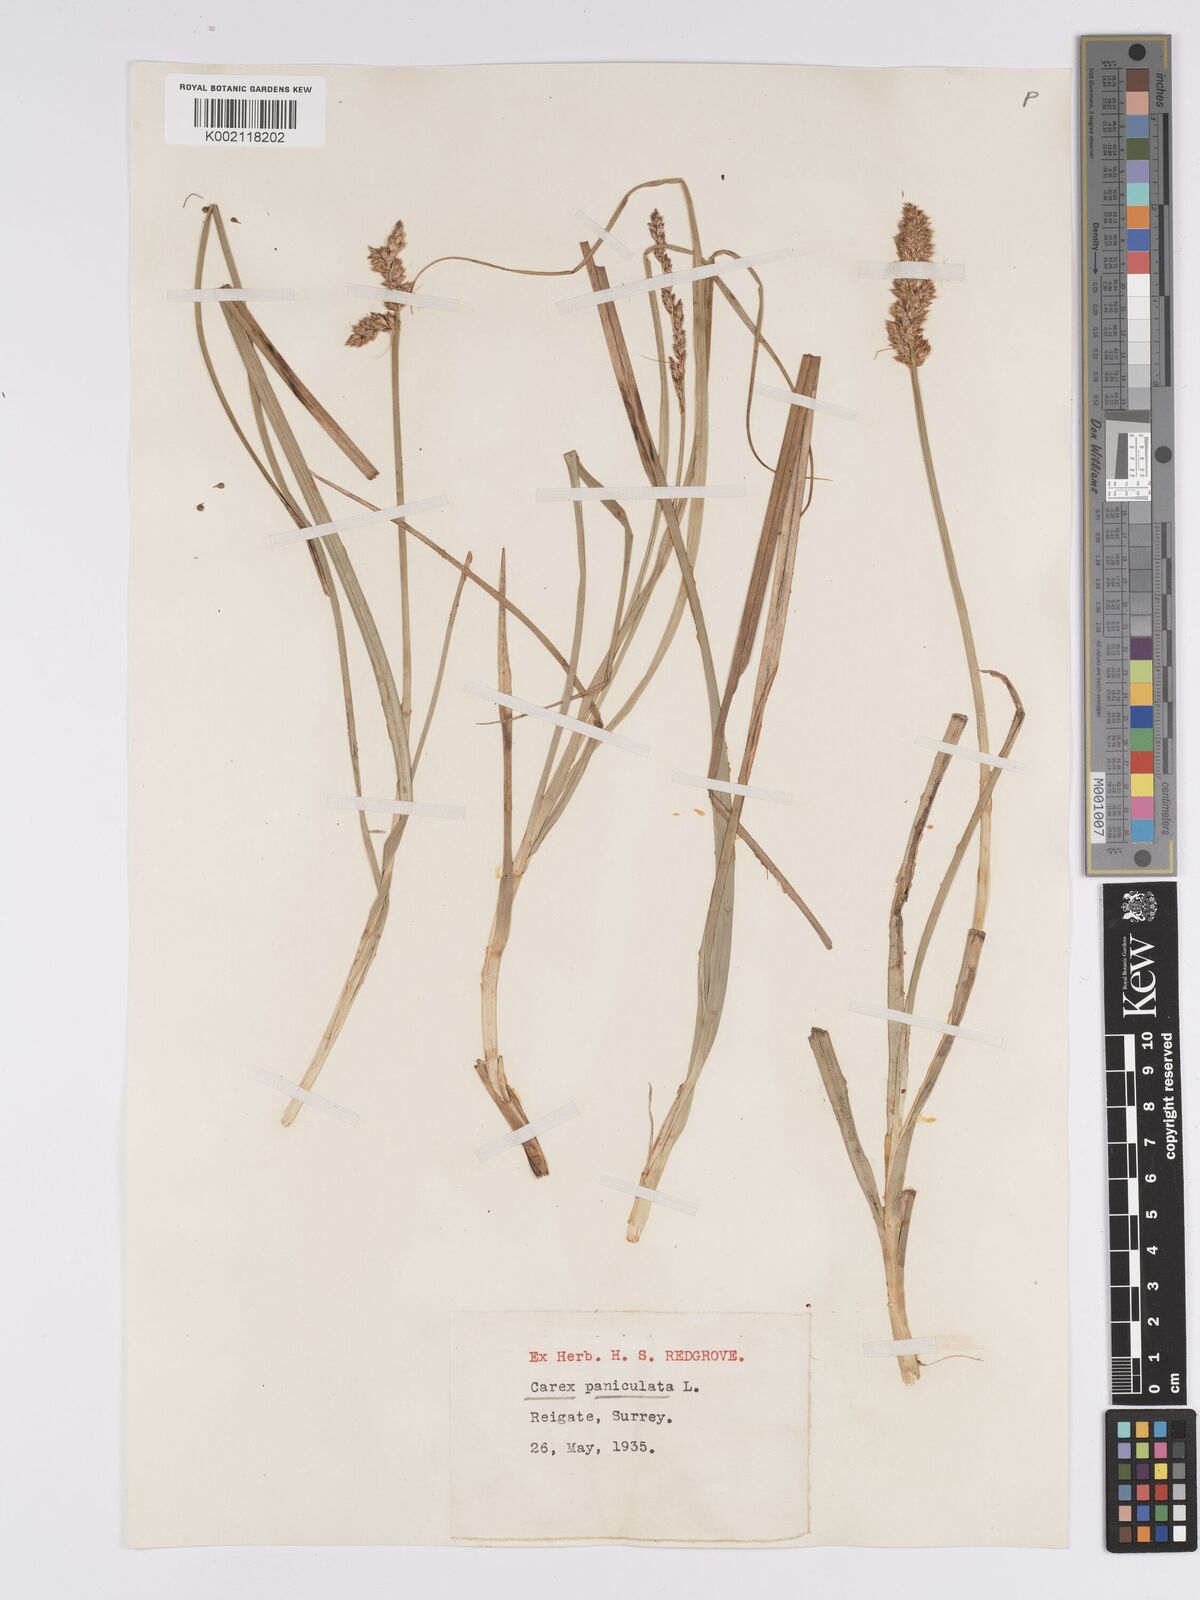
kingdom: Plantae
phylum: Tracheophyta
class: Liliopsida
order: Poales
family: Cyperaceae
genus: Carex
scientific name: Carex paniculata
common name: Greater tussock-sedge
